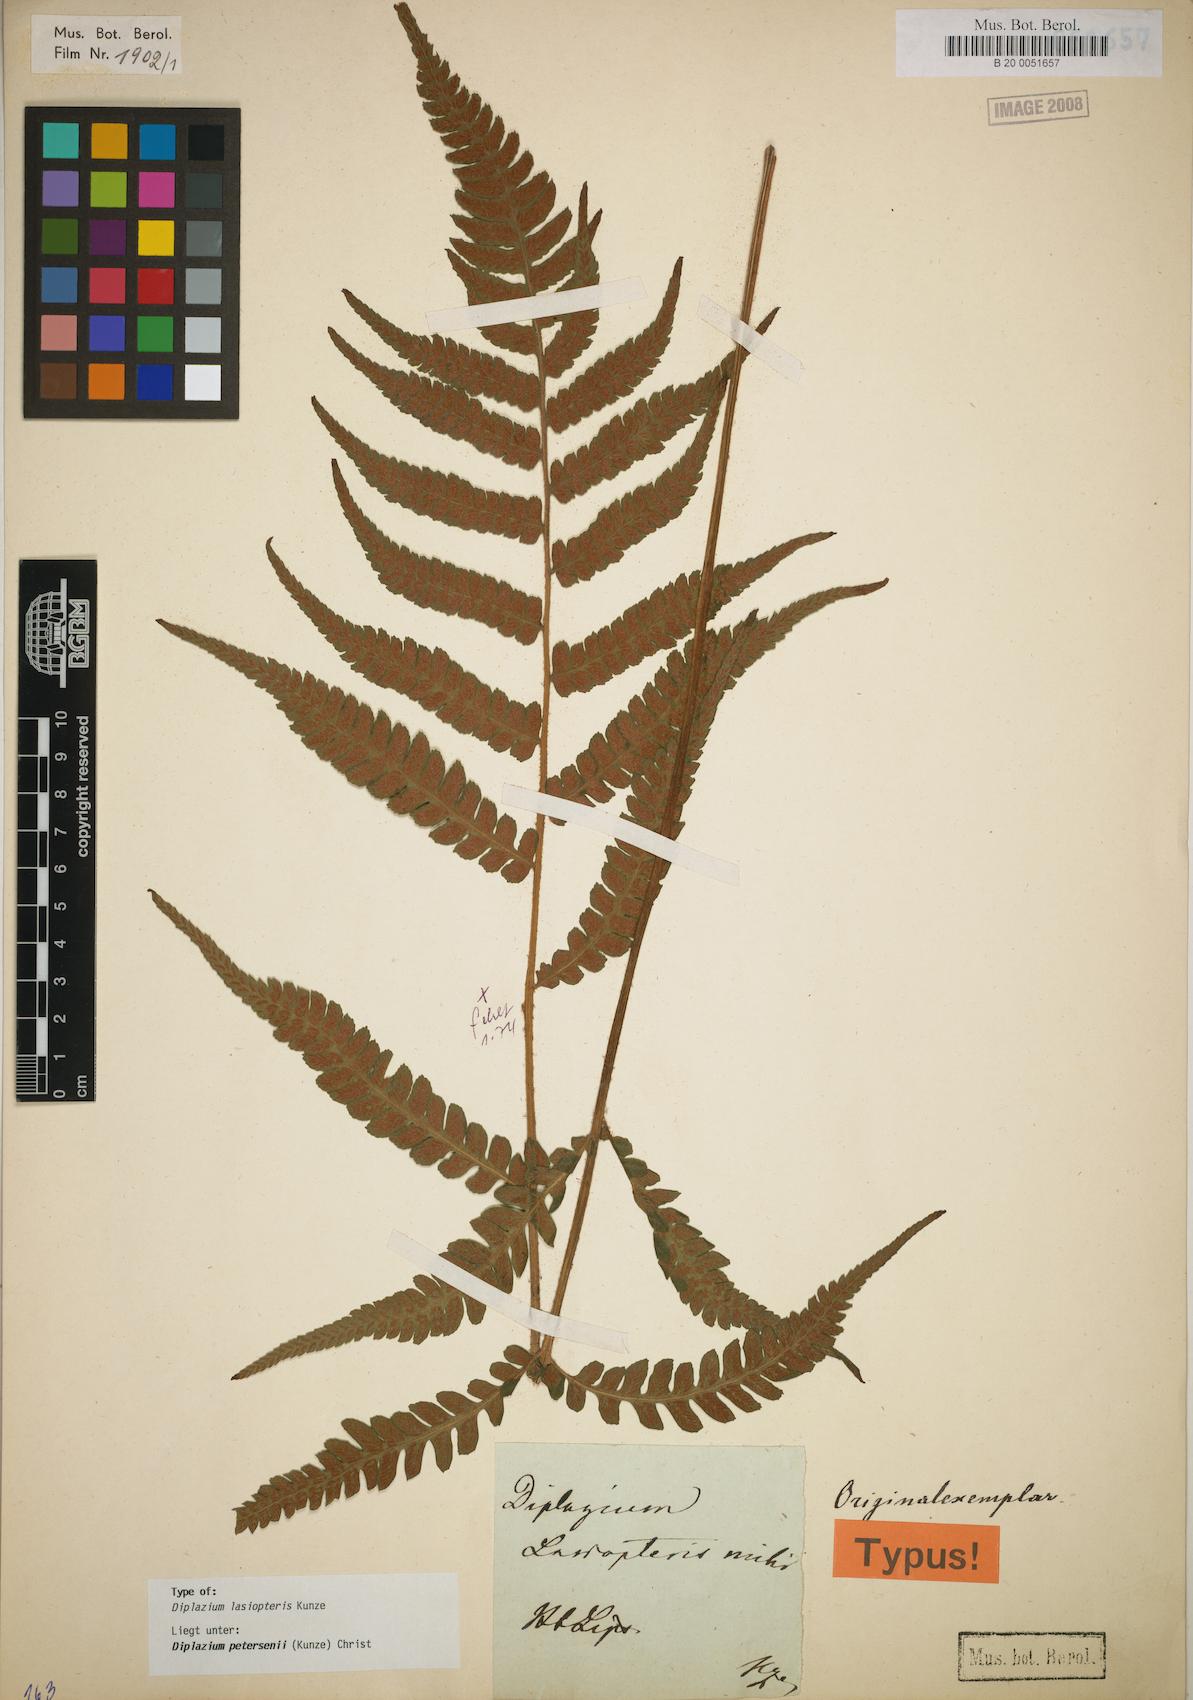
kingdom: Plantae
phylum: Tracheophyta
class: Polypodiopsida
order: Polypodiales
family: Athyriaceae
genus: Deparia
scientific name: Deparia petersenii
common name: Japanese false spleenwort
